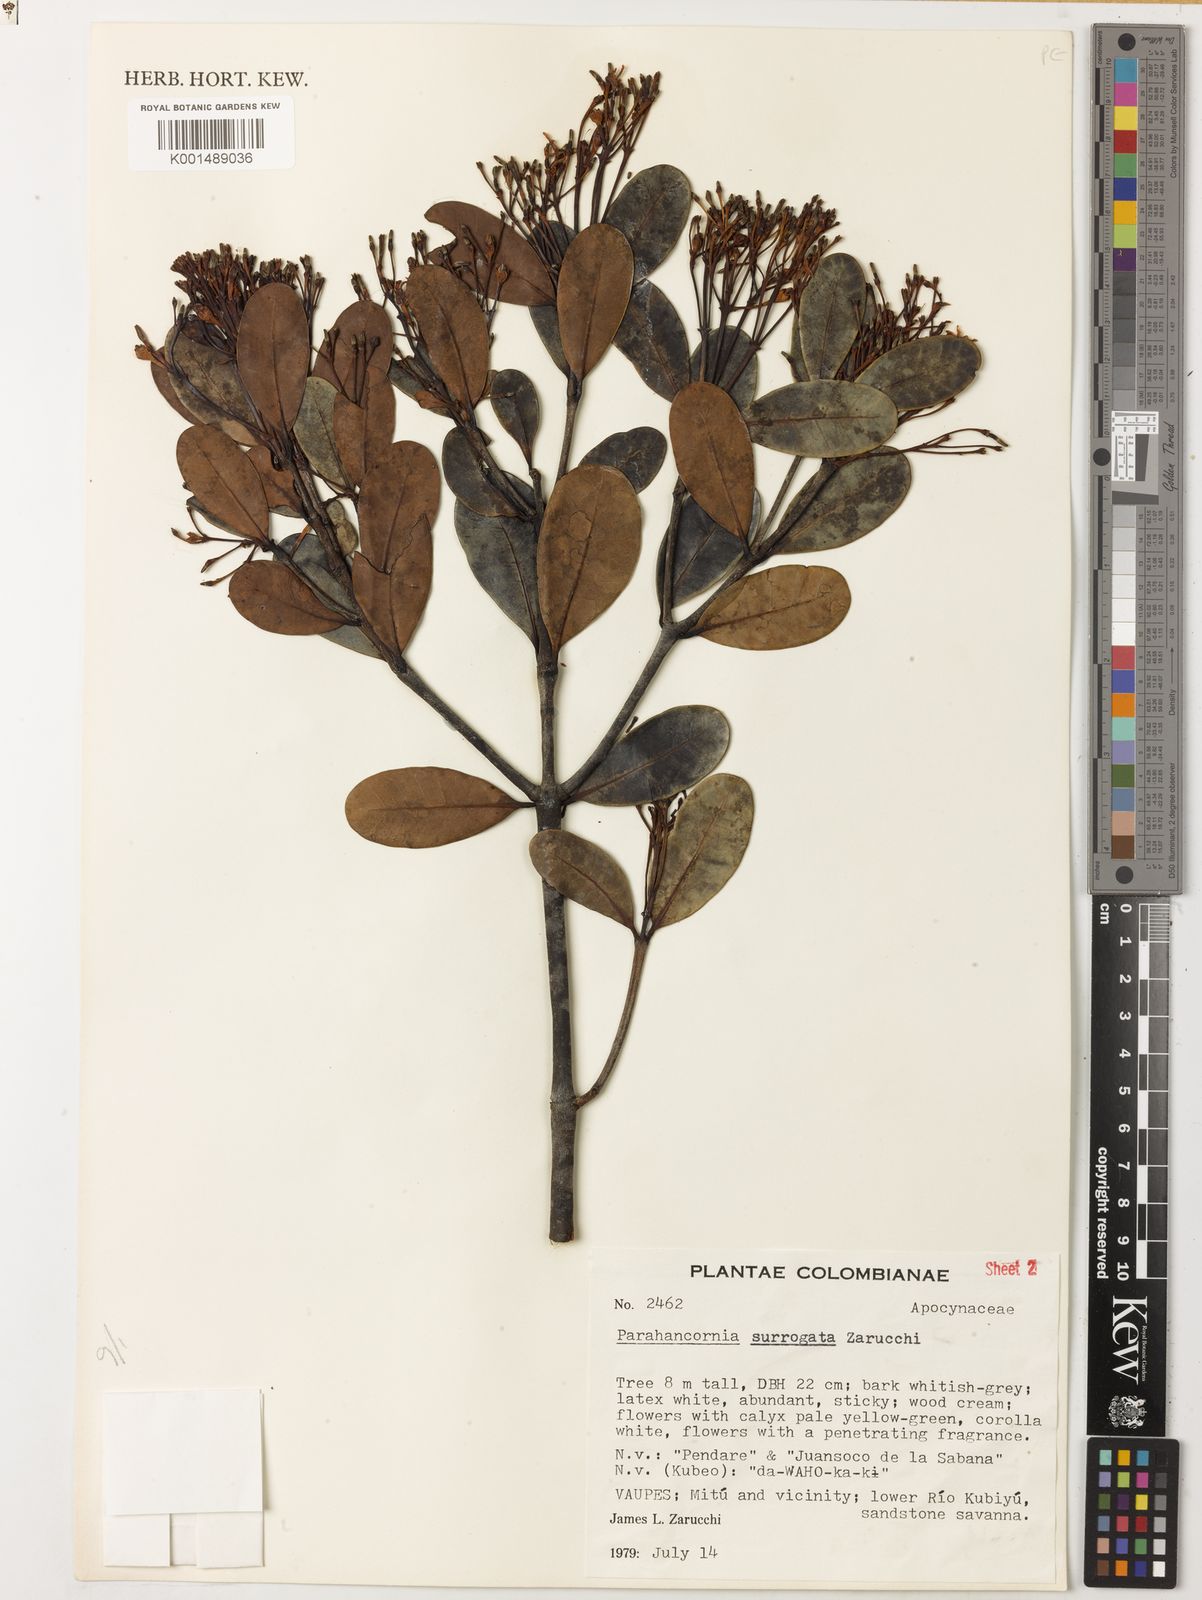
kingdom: Plantae
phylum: Tracheophyta
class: Magnoliopsida
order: Gentianales
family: Apocynaceae
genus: Parahancornia
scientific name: Parahancornia surrogata
